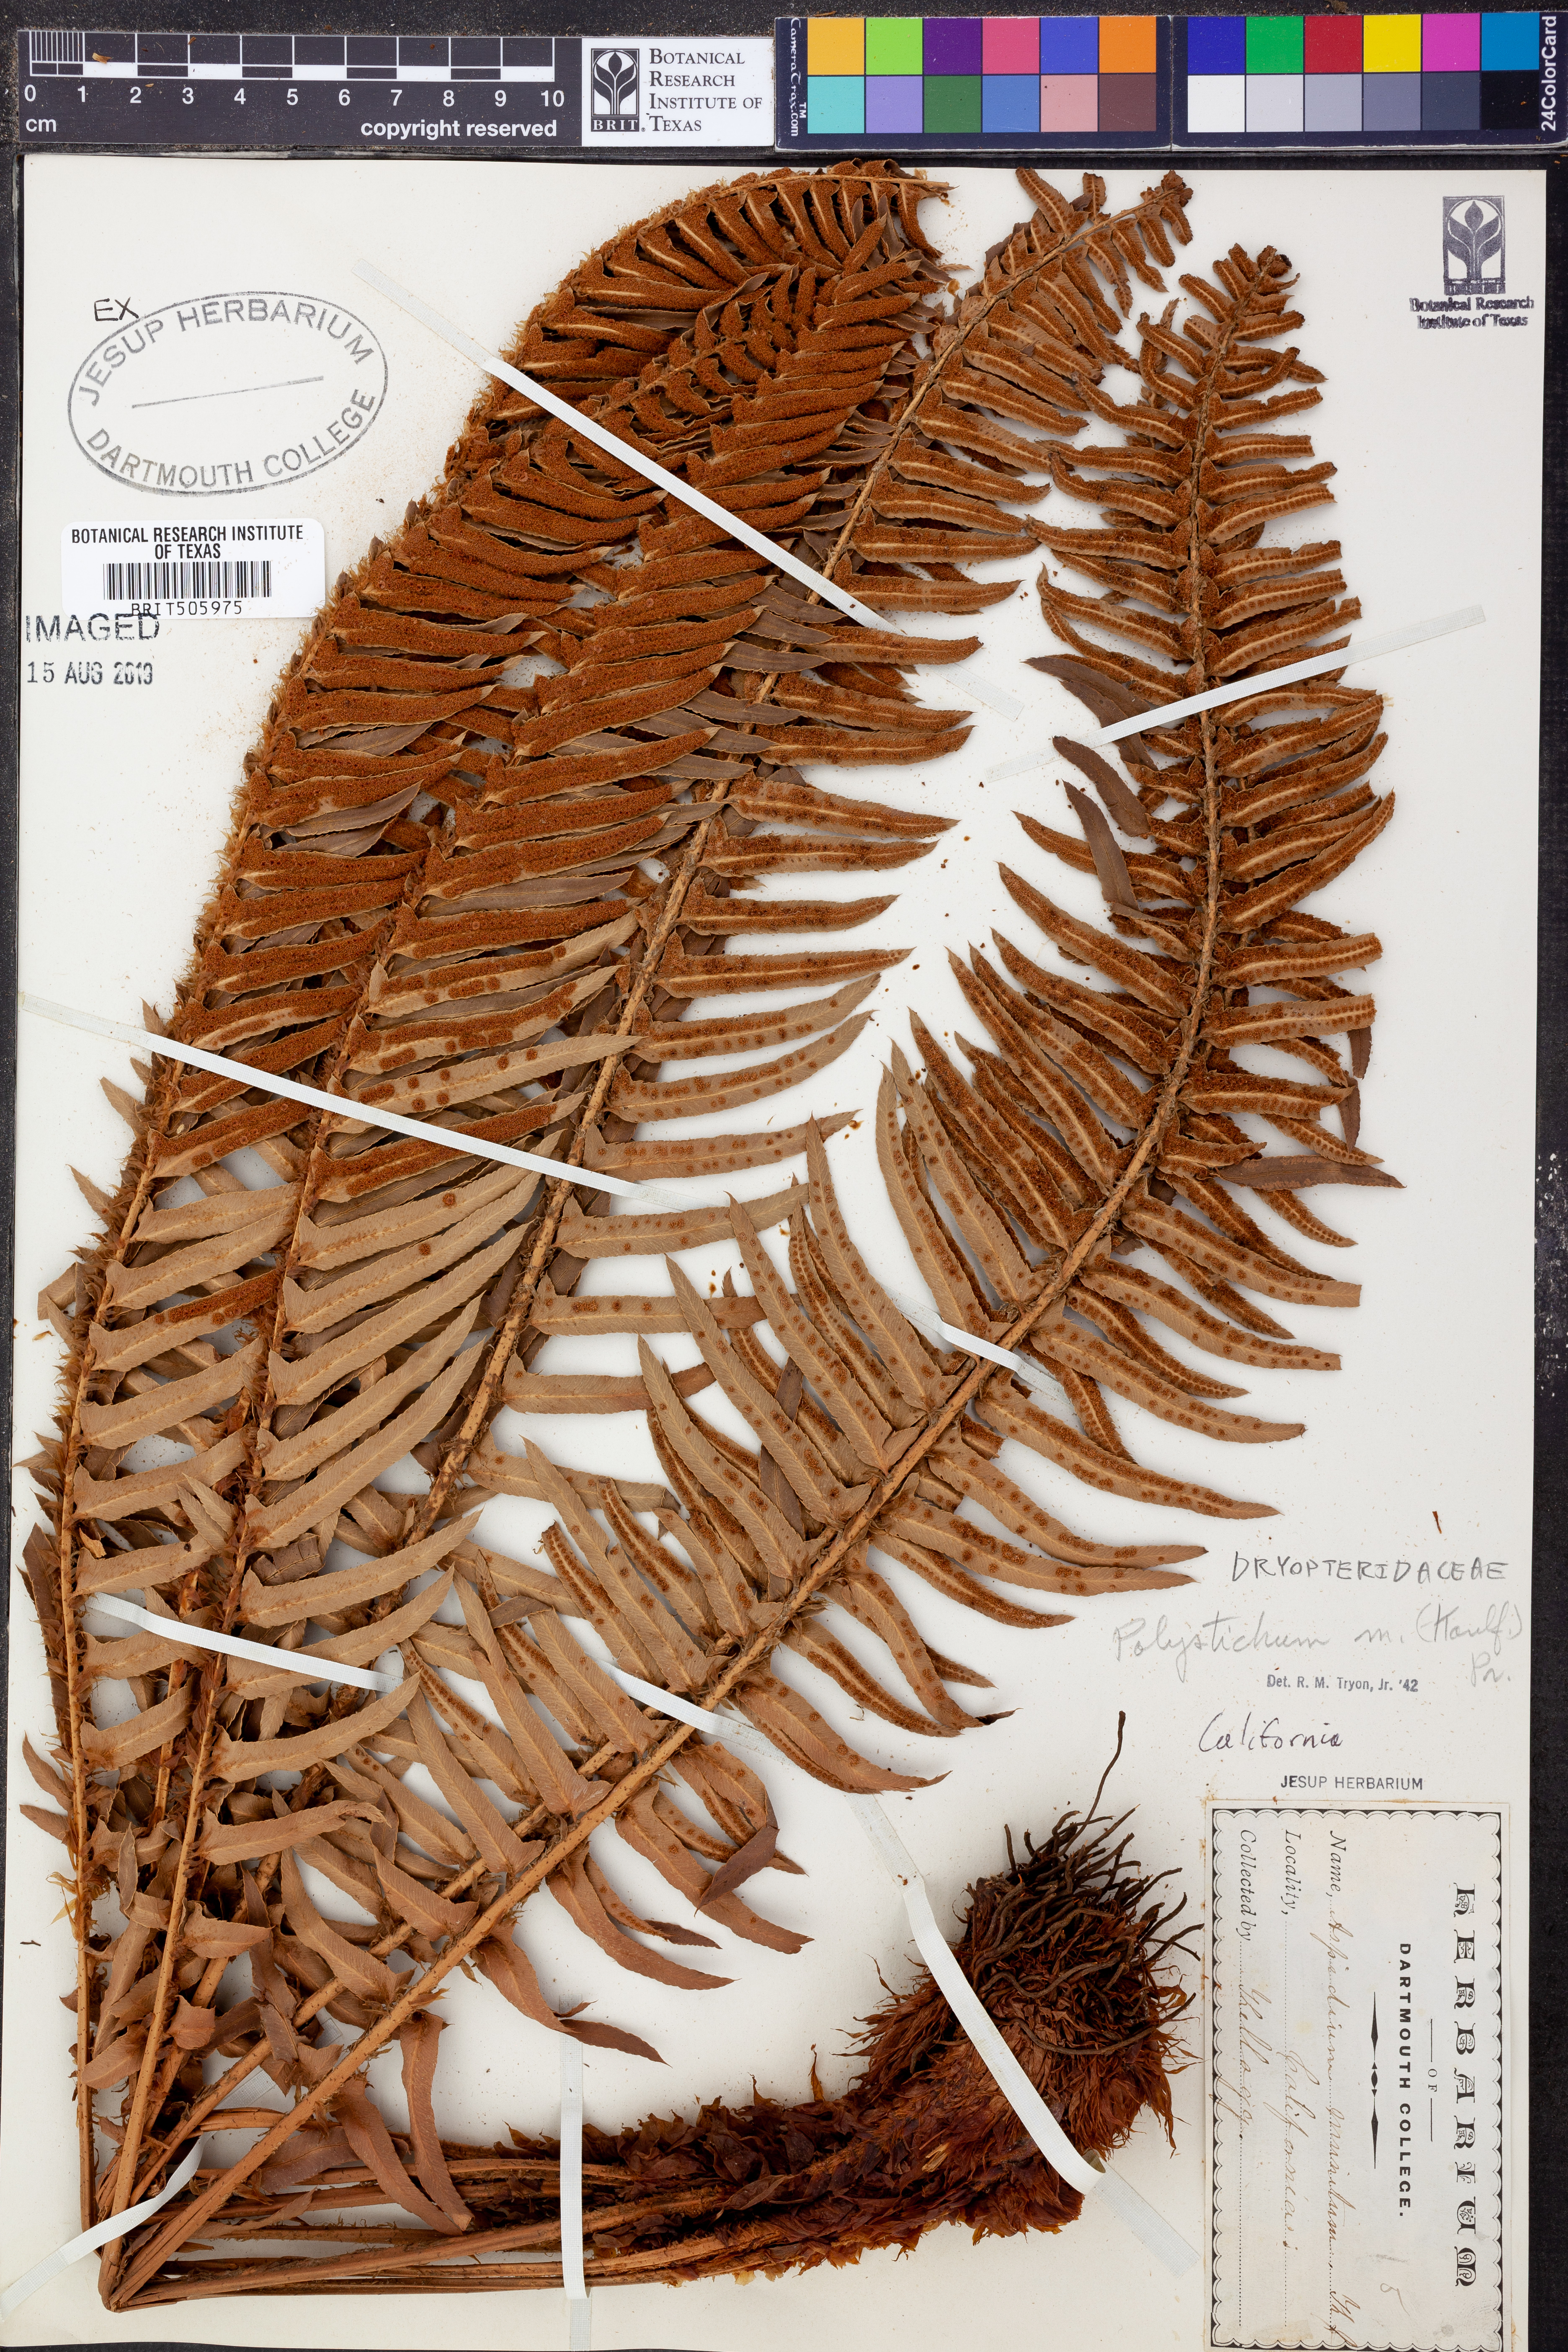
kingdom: Plantae
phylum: Tracheophyta
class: Polypodiopsida
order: Polypodiales
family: Dryopteridaceae
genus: Polystichum
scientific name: Polystichum munitum
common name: Western sword-fern
